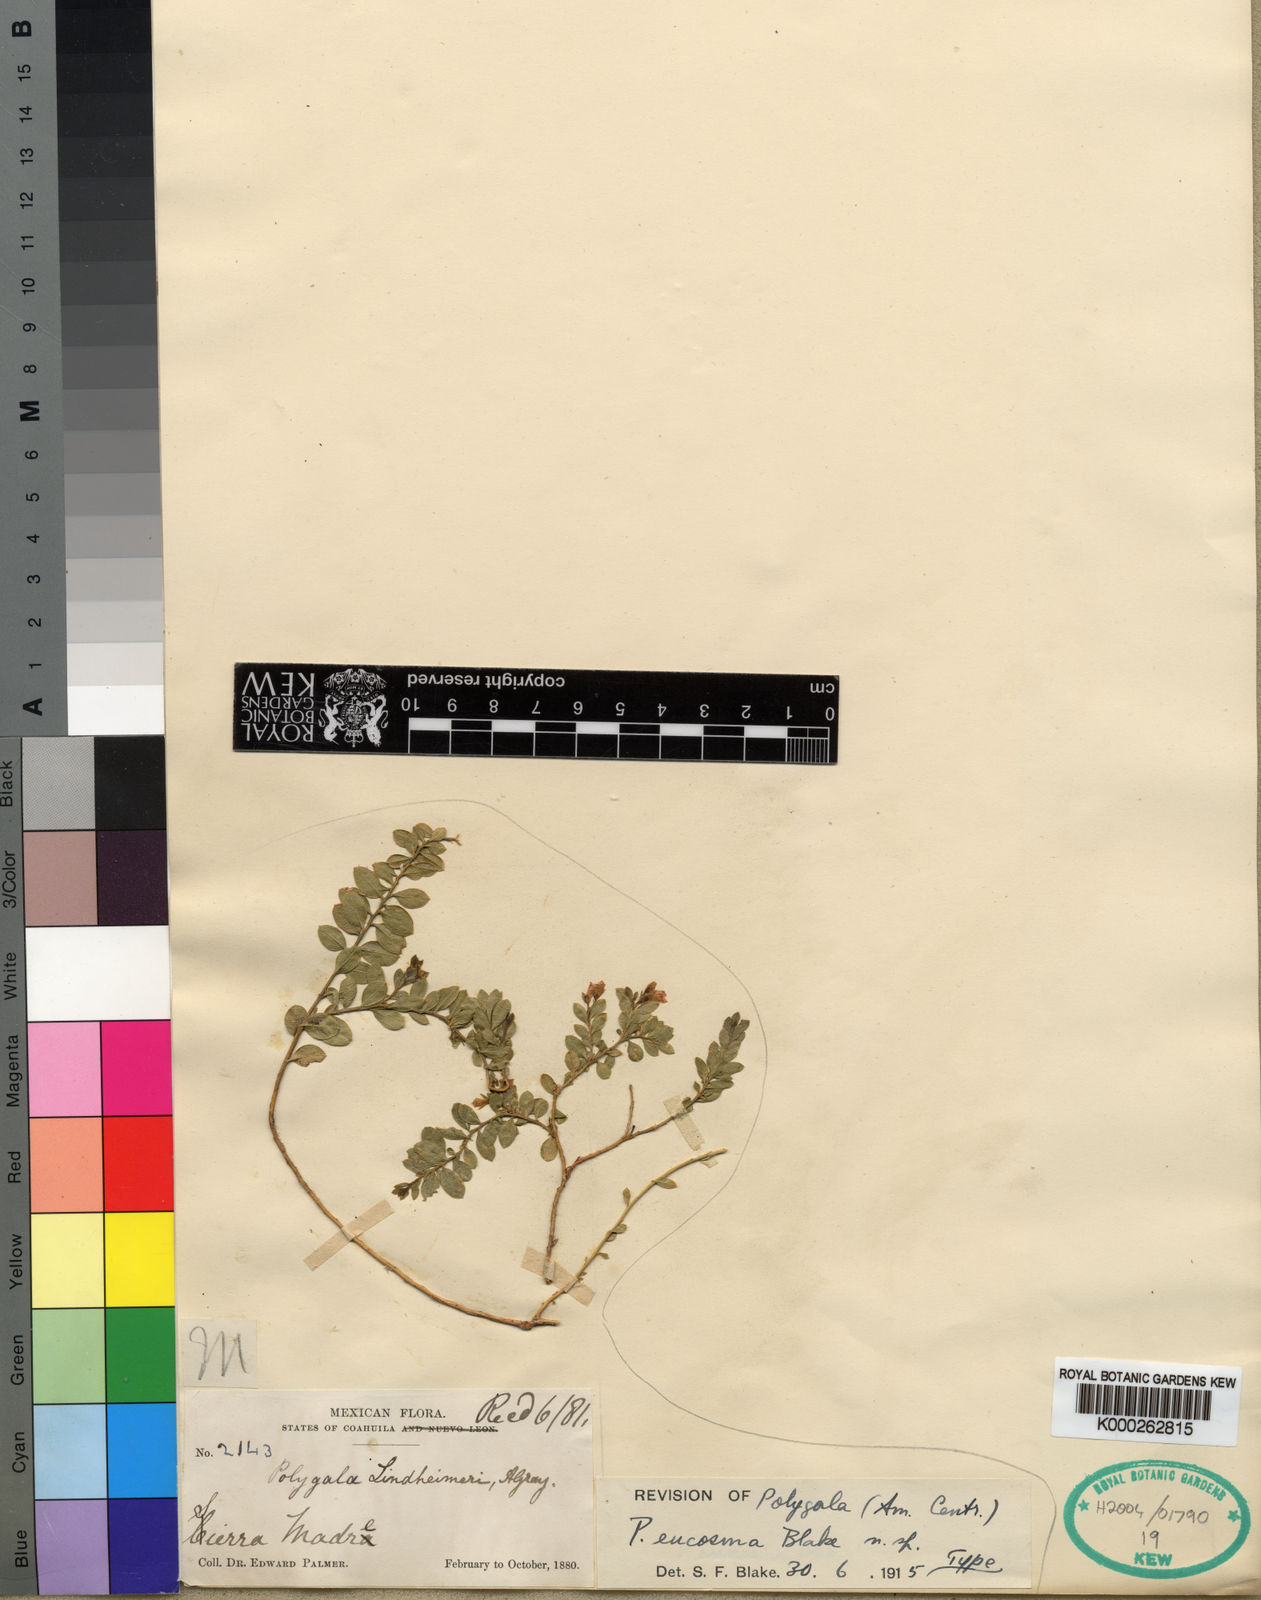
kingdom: Plantae
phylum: Tracheophyta
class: Magnoliopsida
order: Fabales
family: Polygalaceae
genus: Rhinotropis
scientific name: Rhinotropis lindheimeri
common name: Shrubby milkwort
